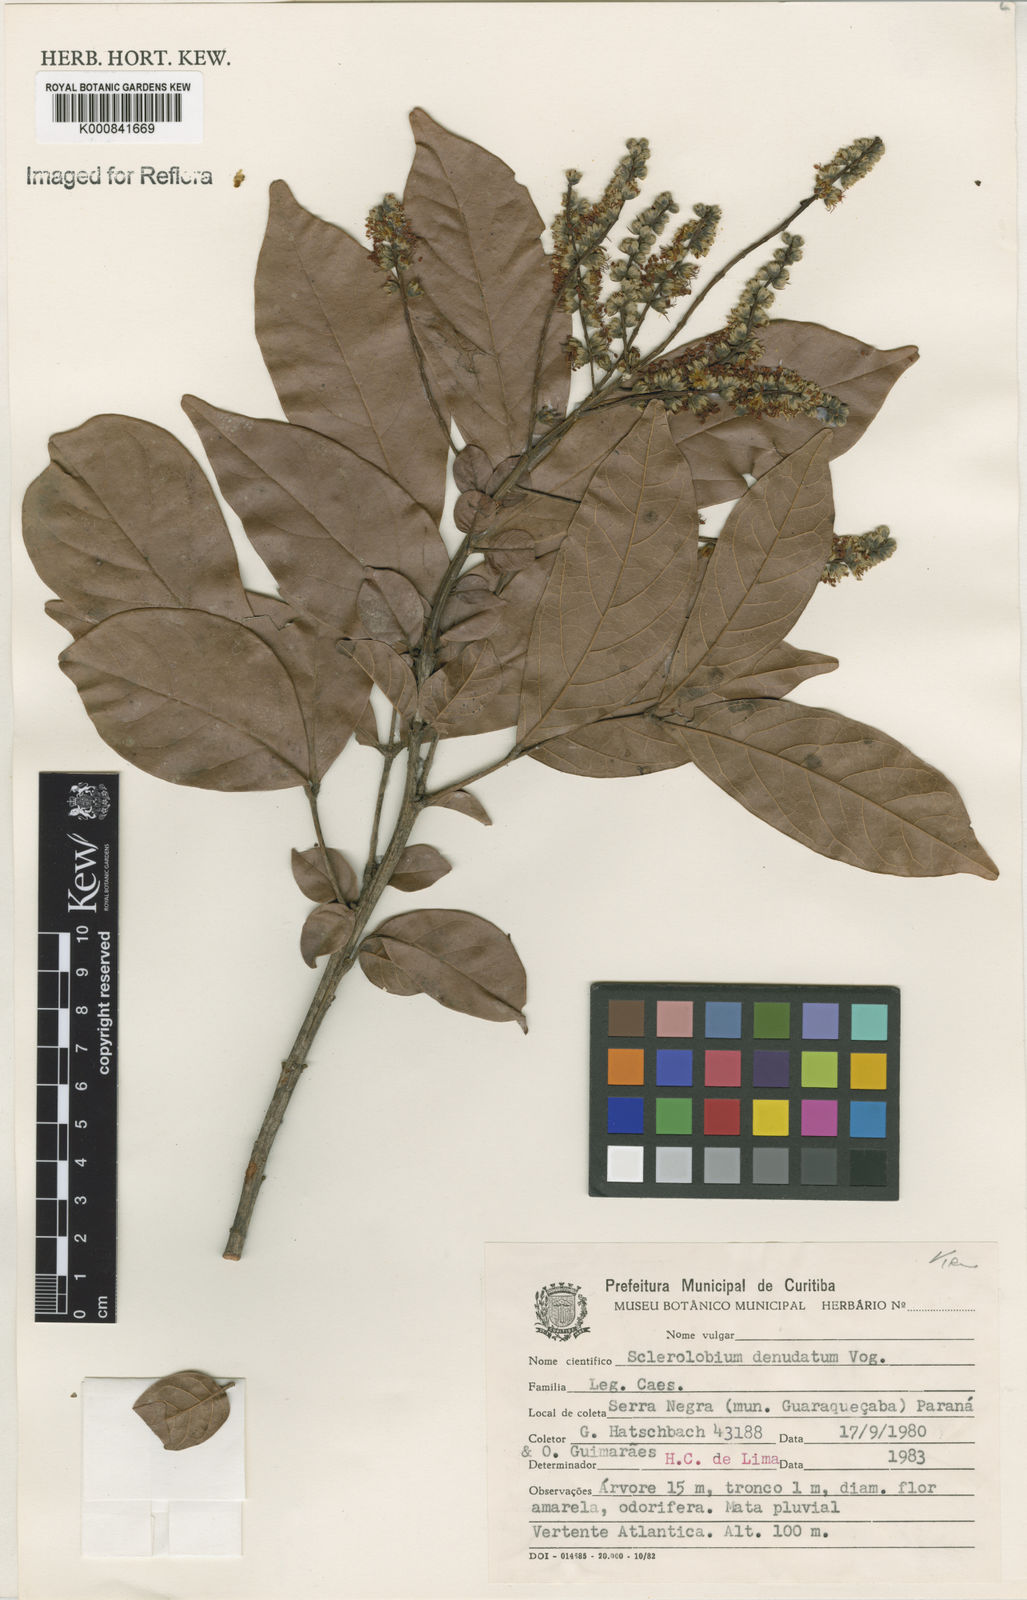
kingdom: Plantae
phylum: Tracheophyta
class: Magnoliopsida
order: Fabales
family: Fabaceae
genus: Tachigali
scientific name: Tachigali denudata
